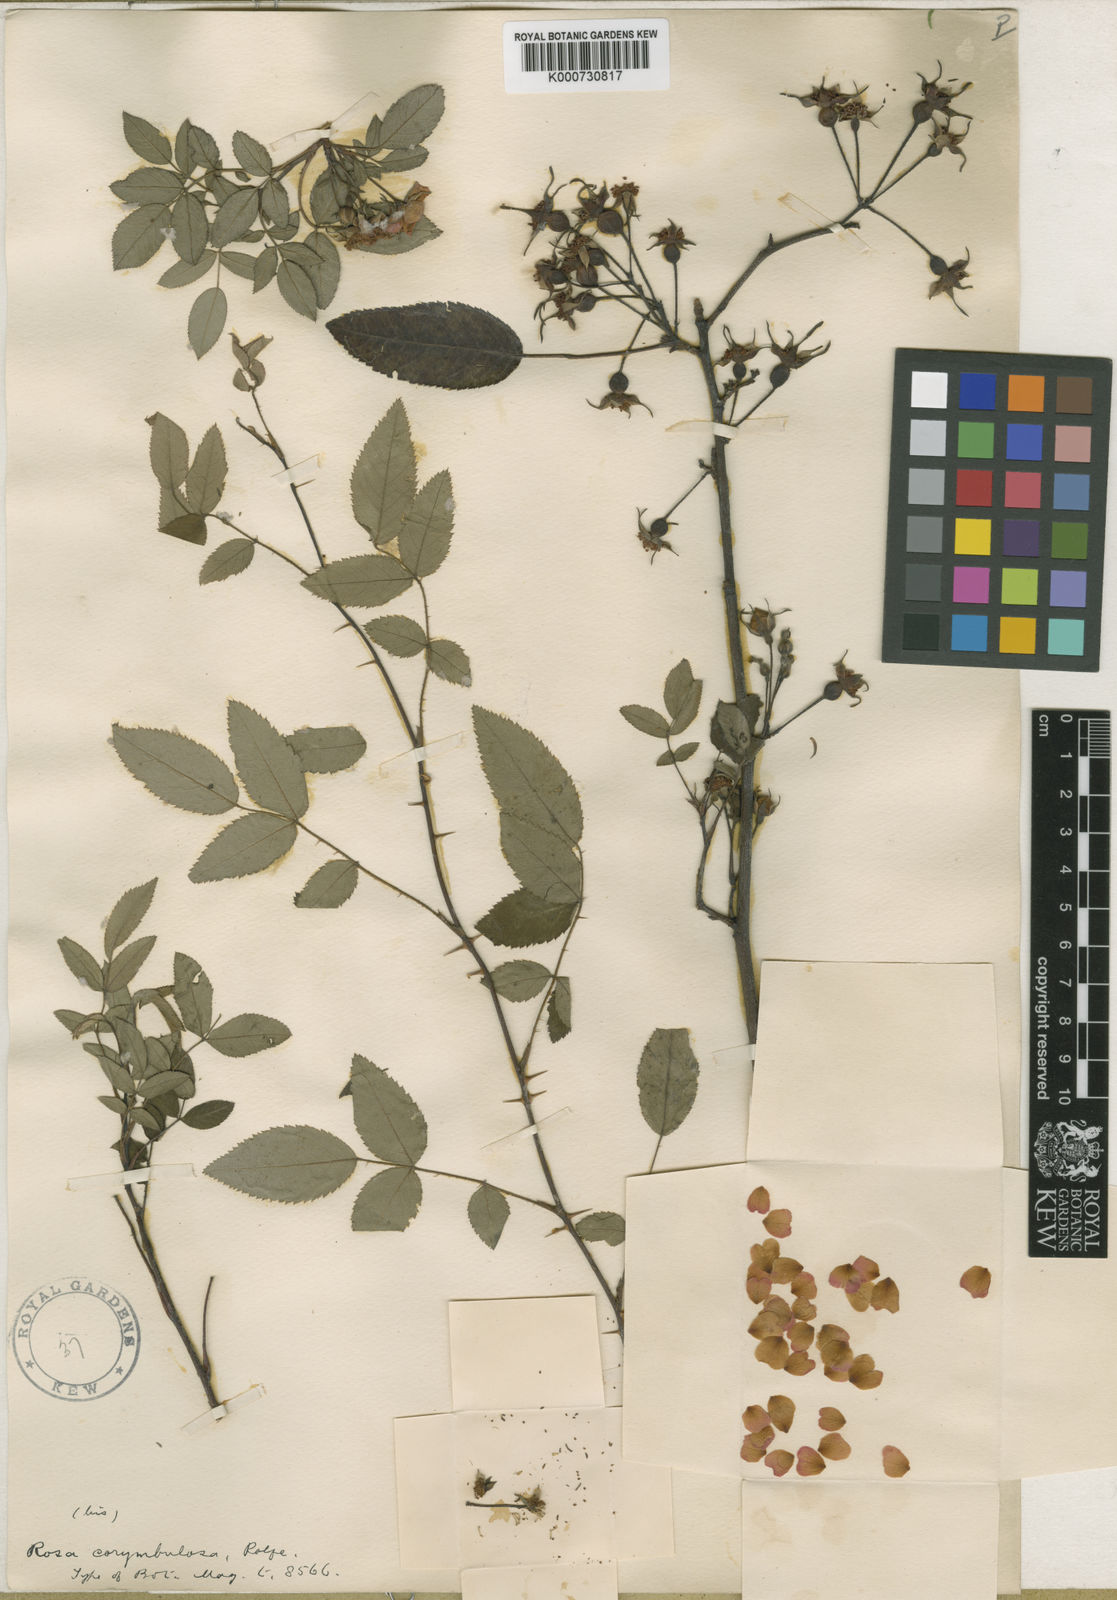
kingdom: Plantae
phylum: Tracheophyta
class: Magnoliopsida
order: Rosales
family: Rosaceae
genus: Rosa
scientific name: Rosa corymbulosa
